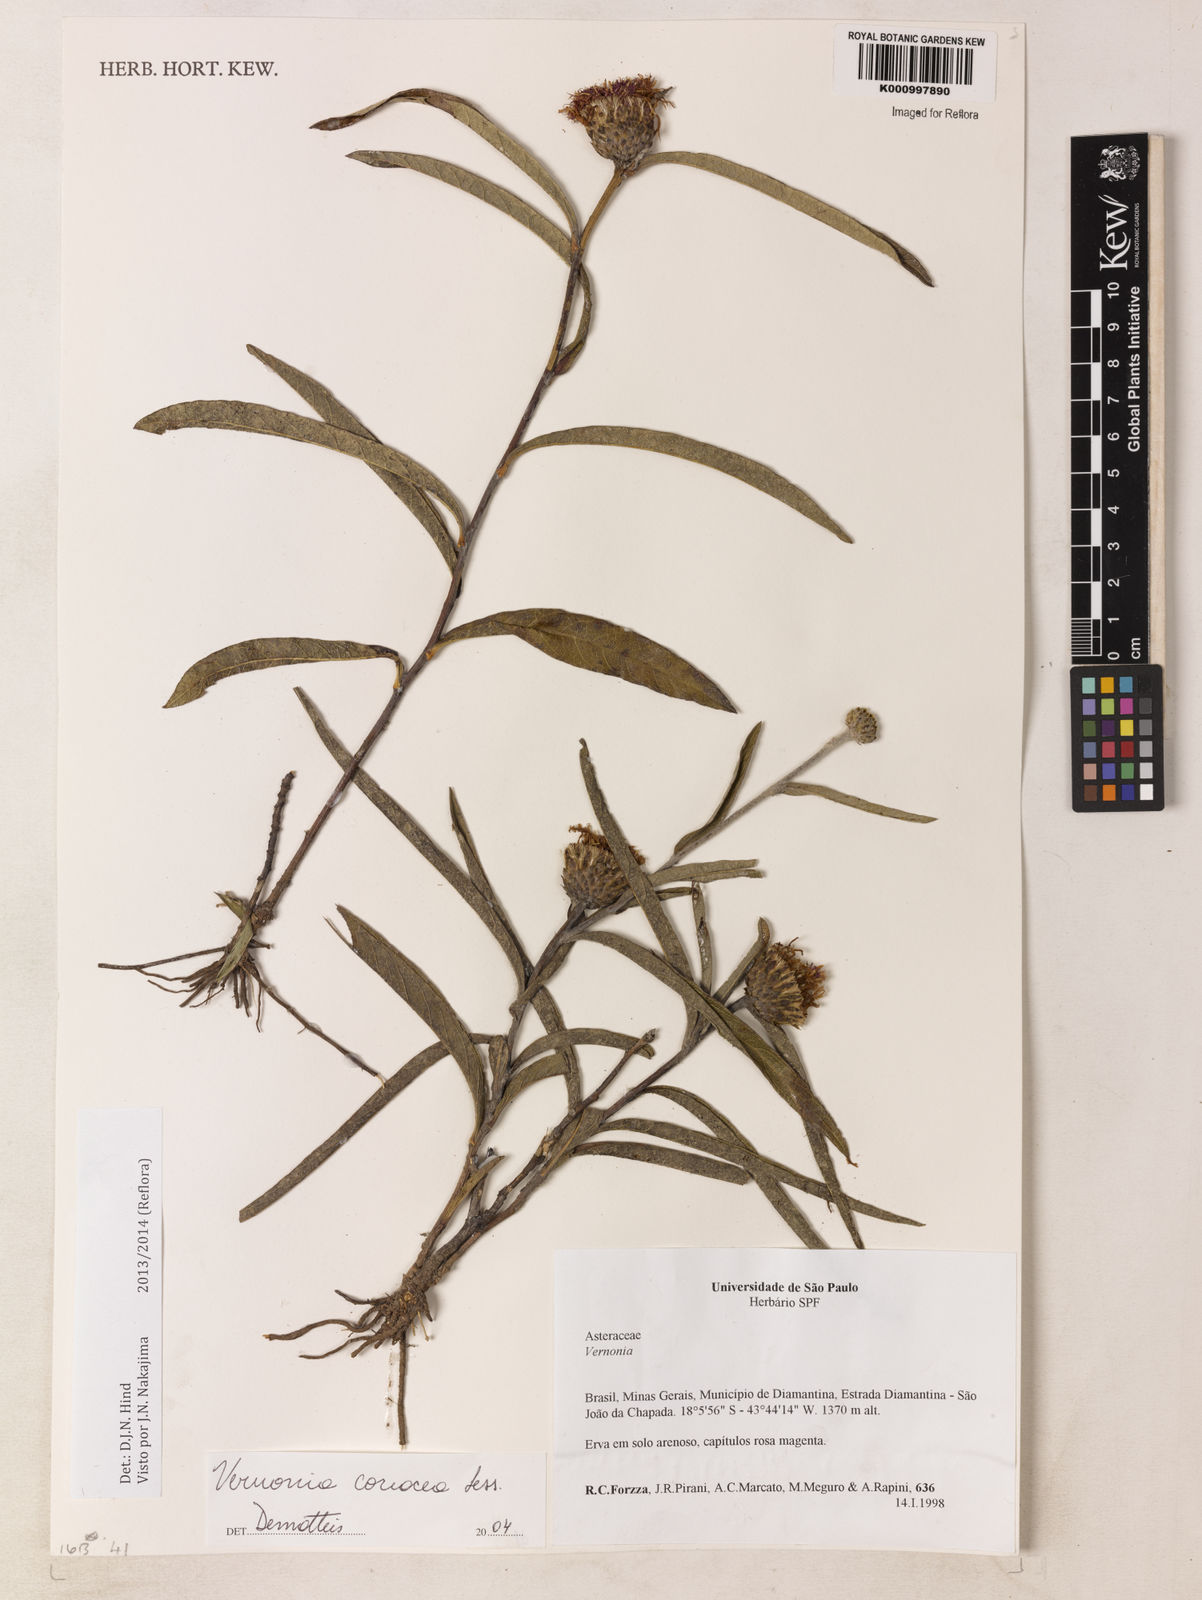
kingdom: Plantae
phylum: Tracheophyta
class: Magnoliopsida
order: Asterales
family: Asteraceae
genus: Lessingianthus
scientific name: Lessingianthus coriaceus
